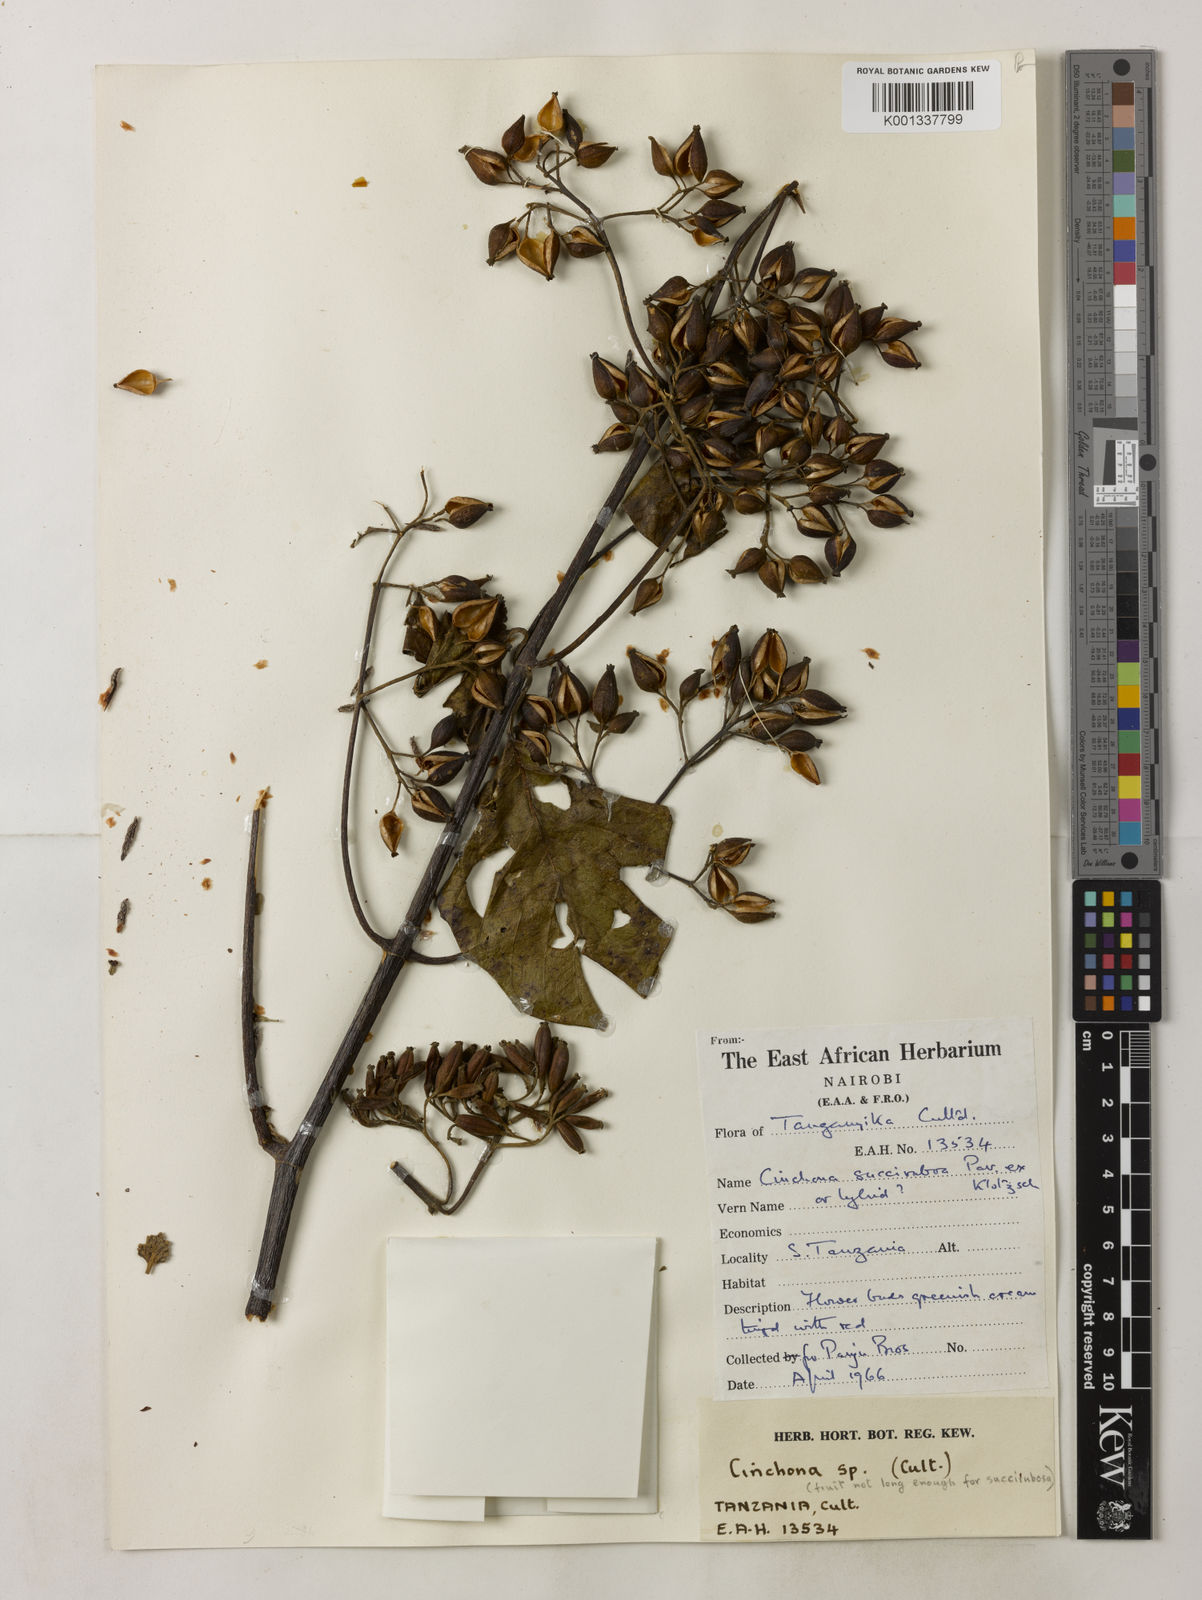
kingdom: Plantae
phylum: Tracheophyta
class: Magnoliopsida
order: Gentianales
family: Rubiaceae
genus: Cinchona
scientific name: Cinchona pubescens
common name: Quinine
